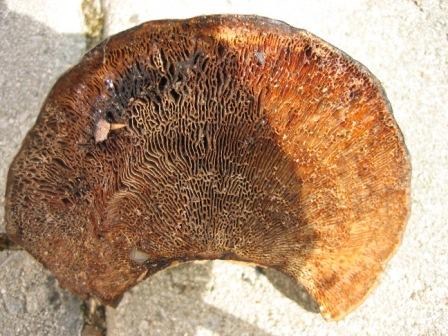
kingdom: Fungi
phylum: Basidiomycota
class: Agaricomycetes
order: Polyporales
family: Polyporaceae
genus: Trametes
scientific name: Trametes
